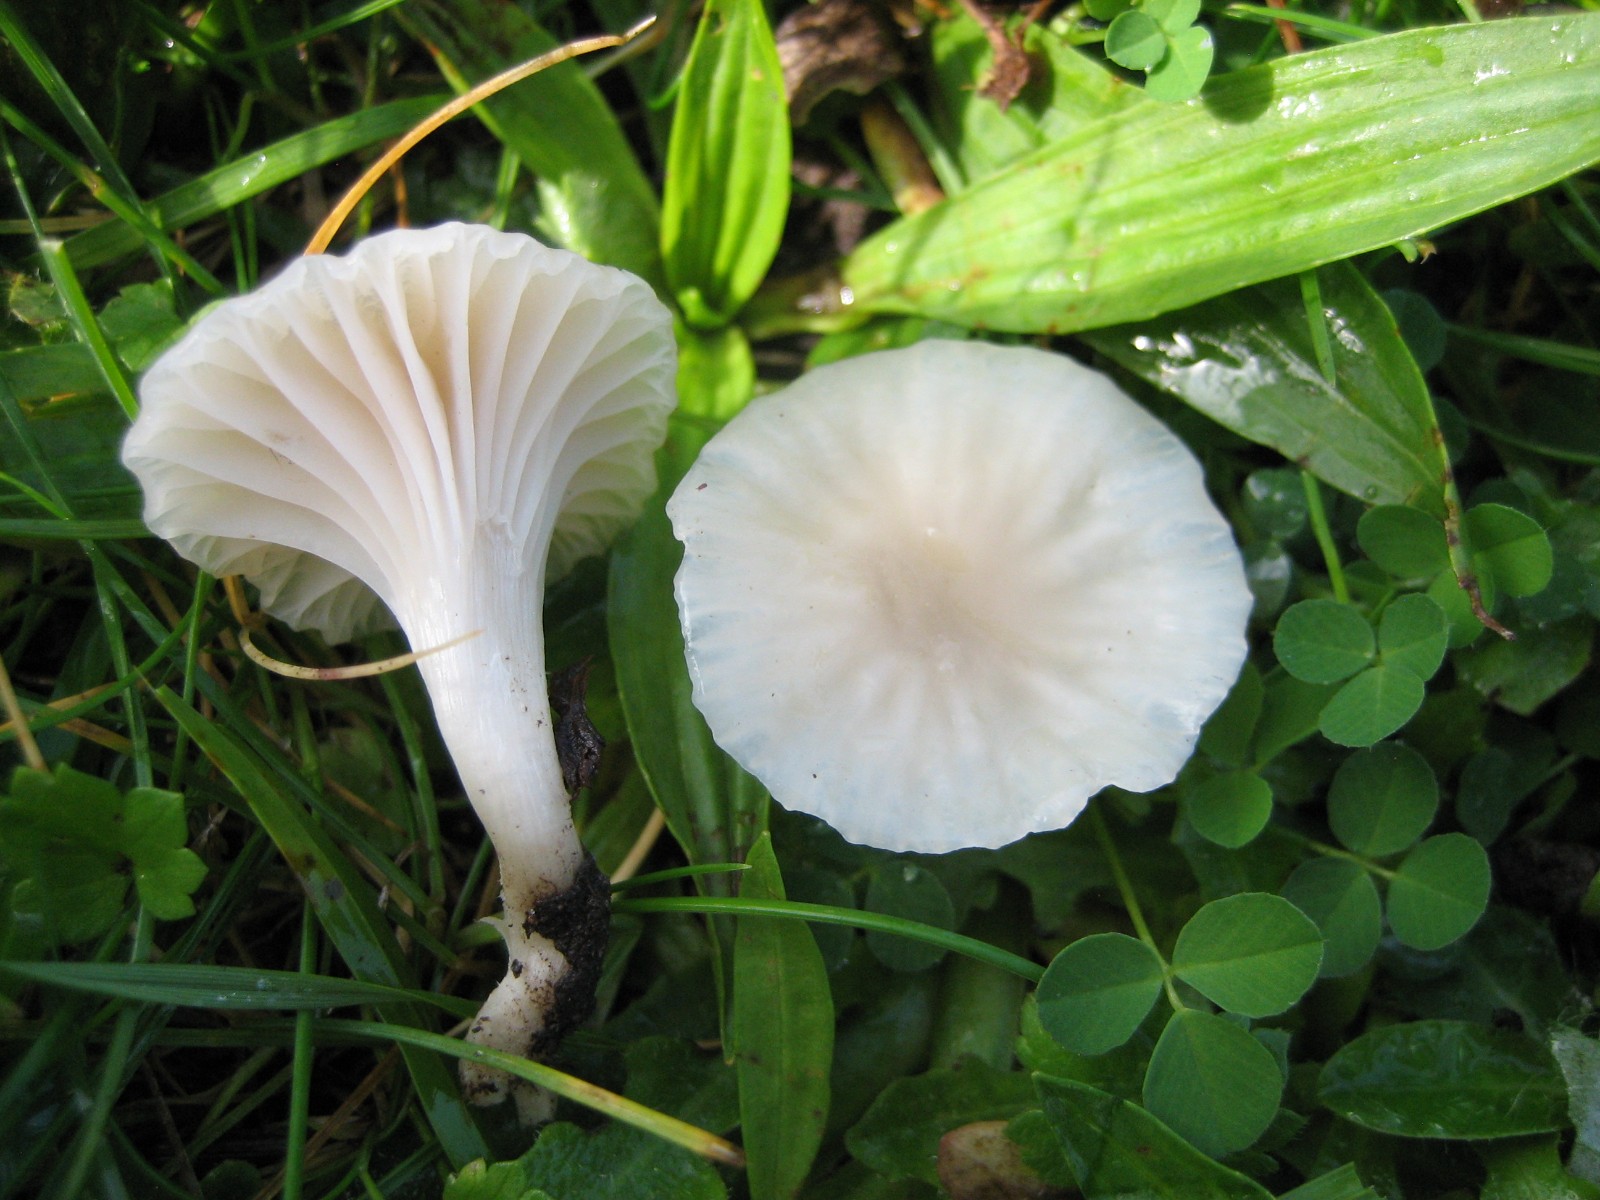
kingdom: Fungi
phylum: Basidiomycota
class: Agaricomycetes
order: Agaricales
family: Hygrophoraceae
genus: Cuphophyllus
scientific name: Cuphophyllus virgineus
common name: snehvid vokshat
